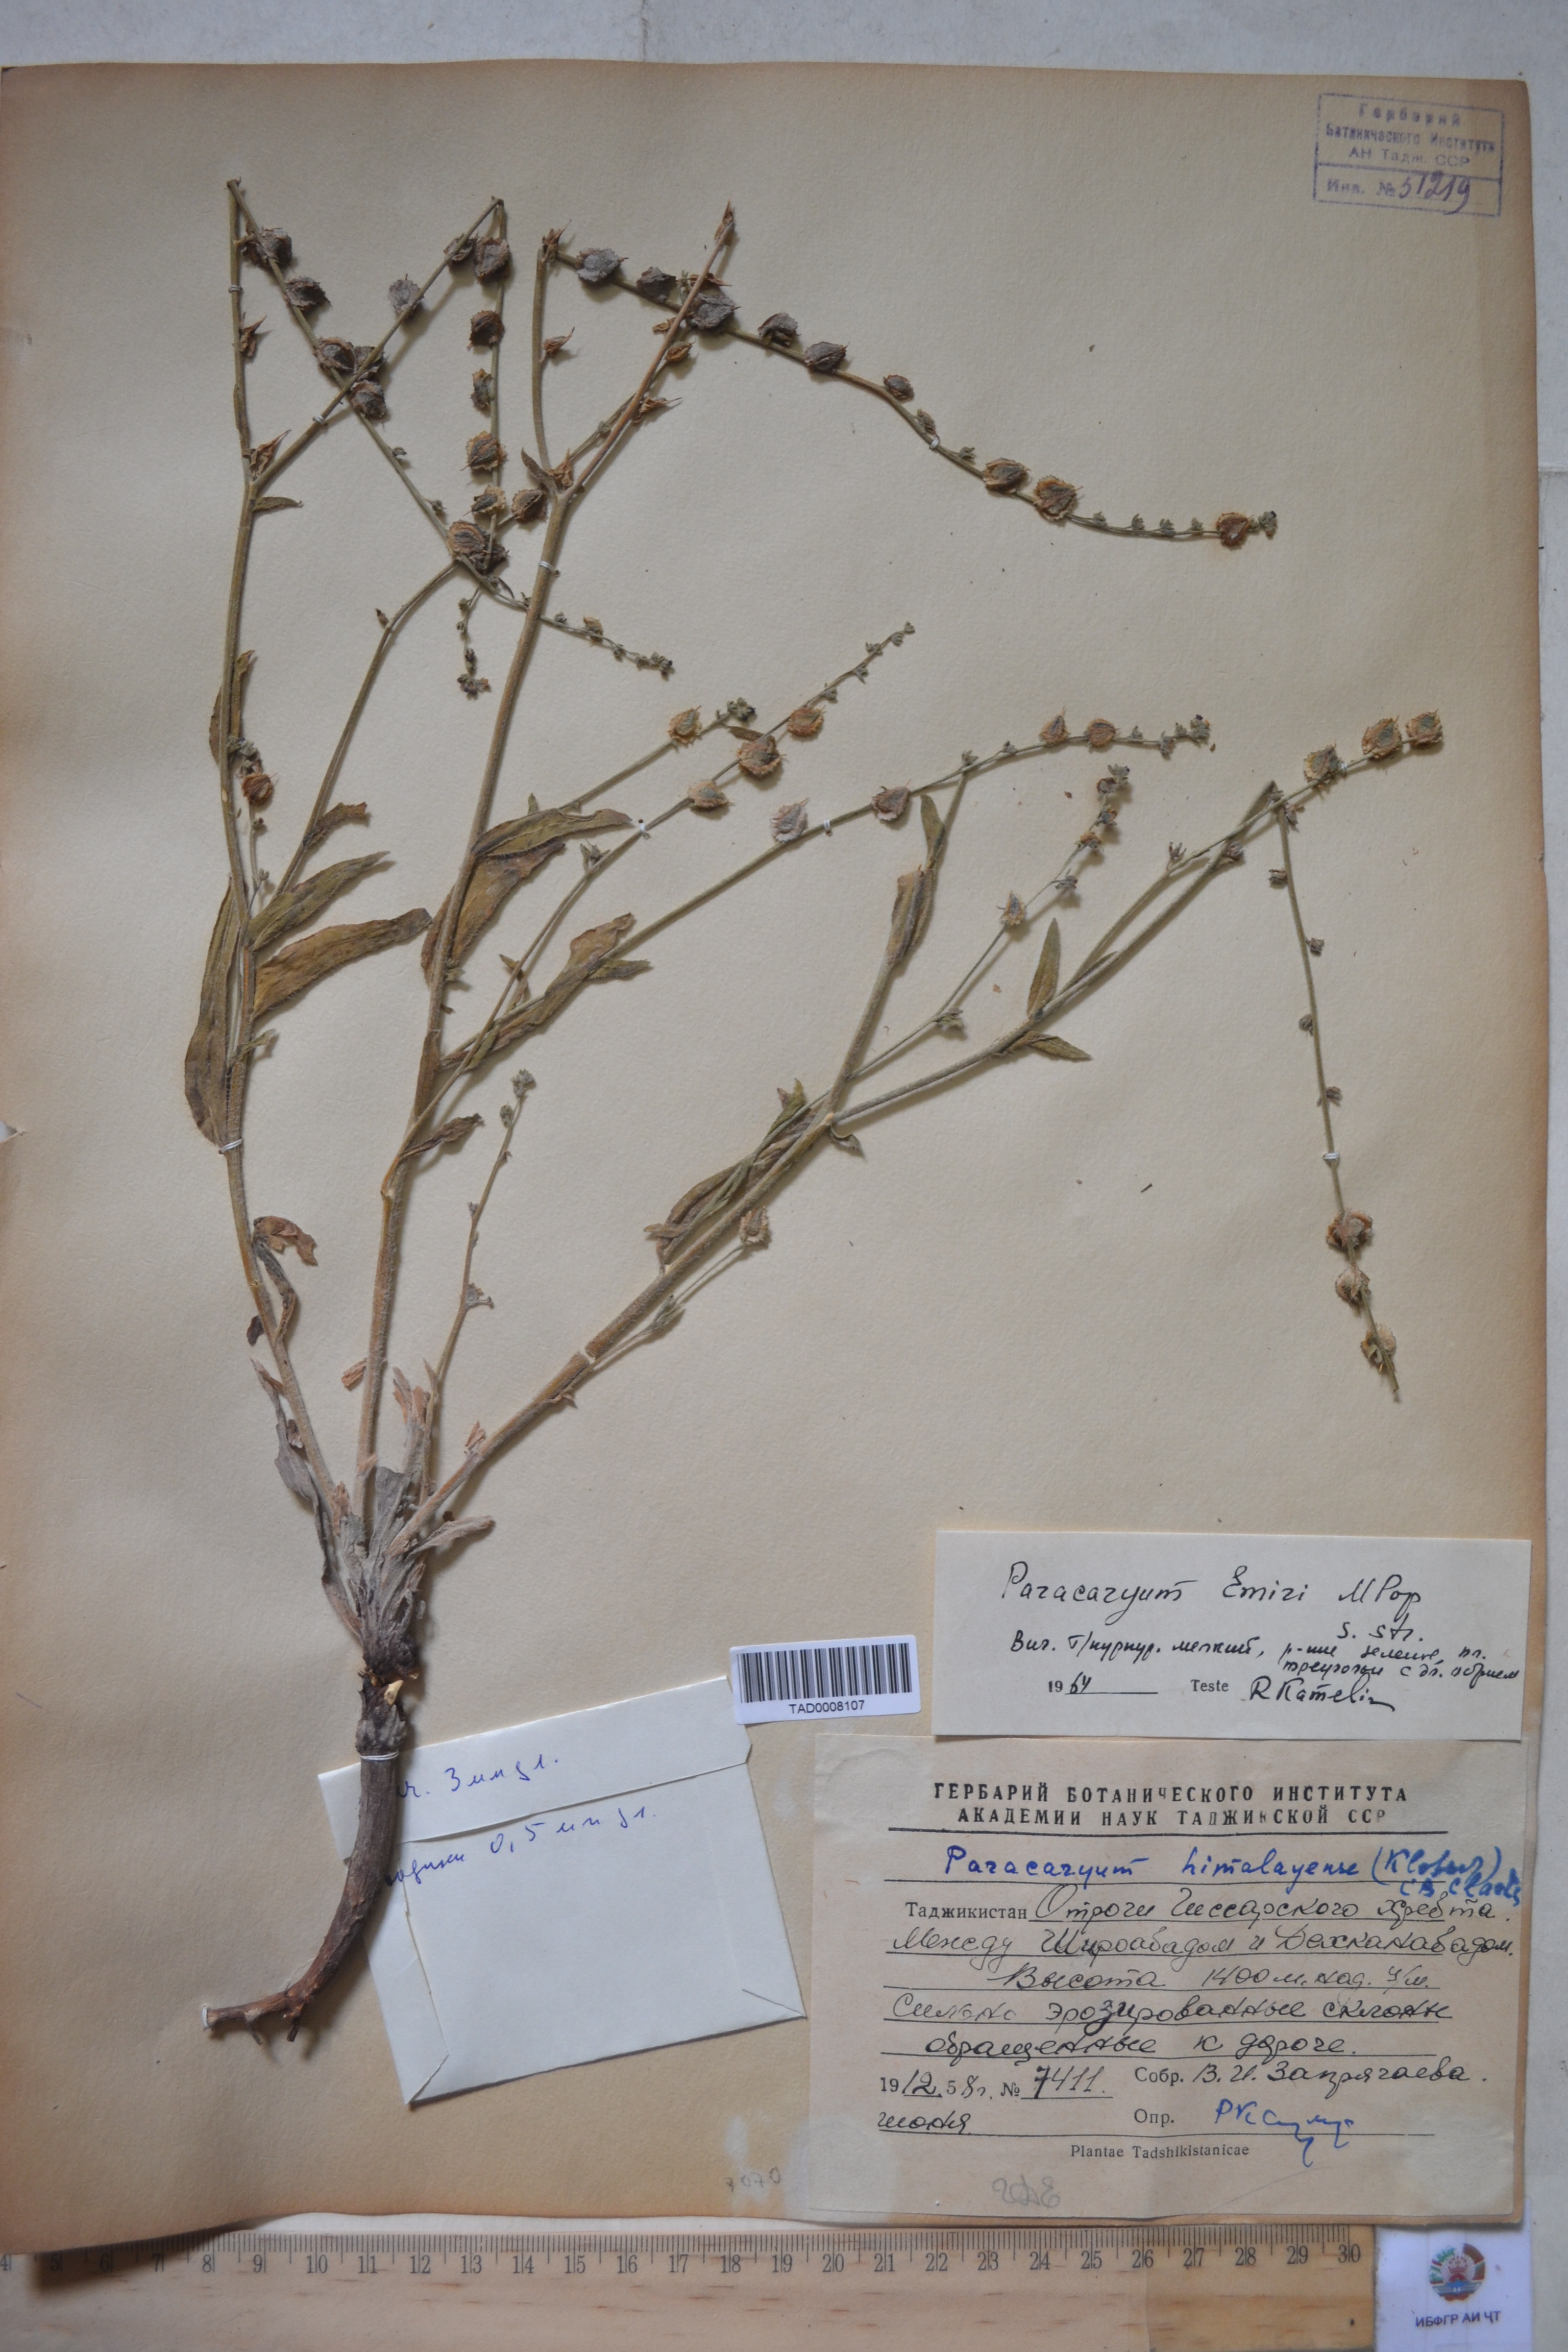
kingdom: Plantae
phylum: Tracheophyta
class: Magnoliopsida
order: Boraginales
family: Boraginaceae
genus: Paracaryum
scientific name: Paracaryum himalayense
